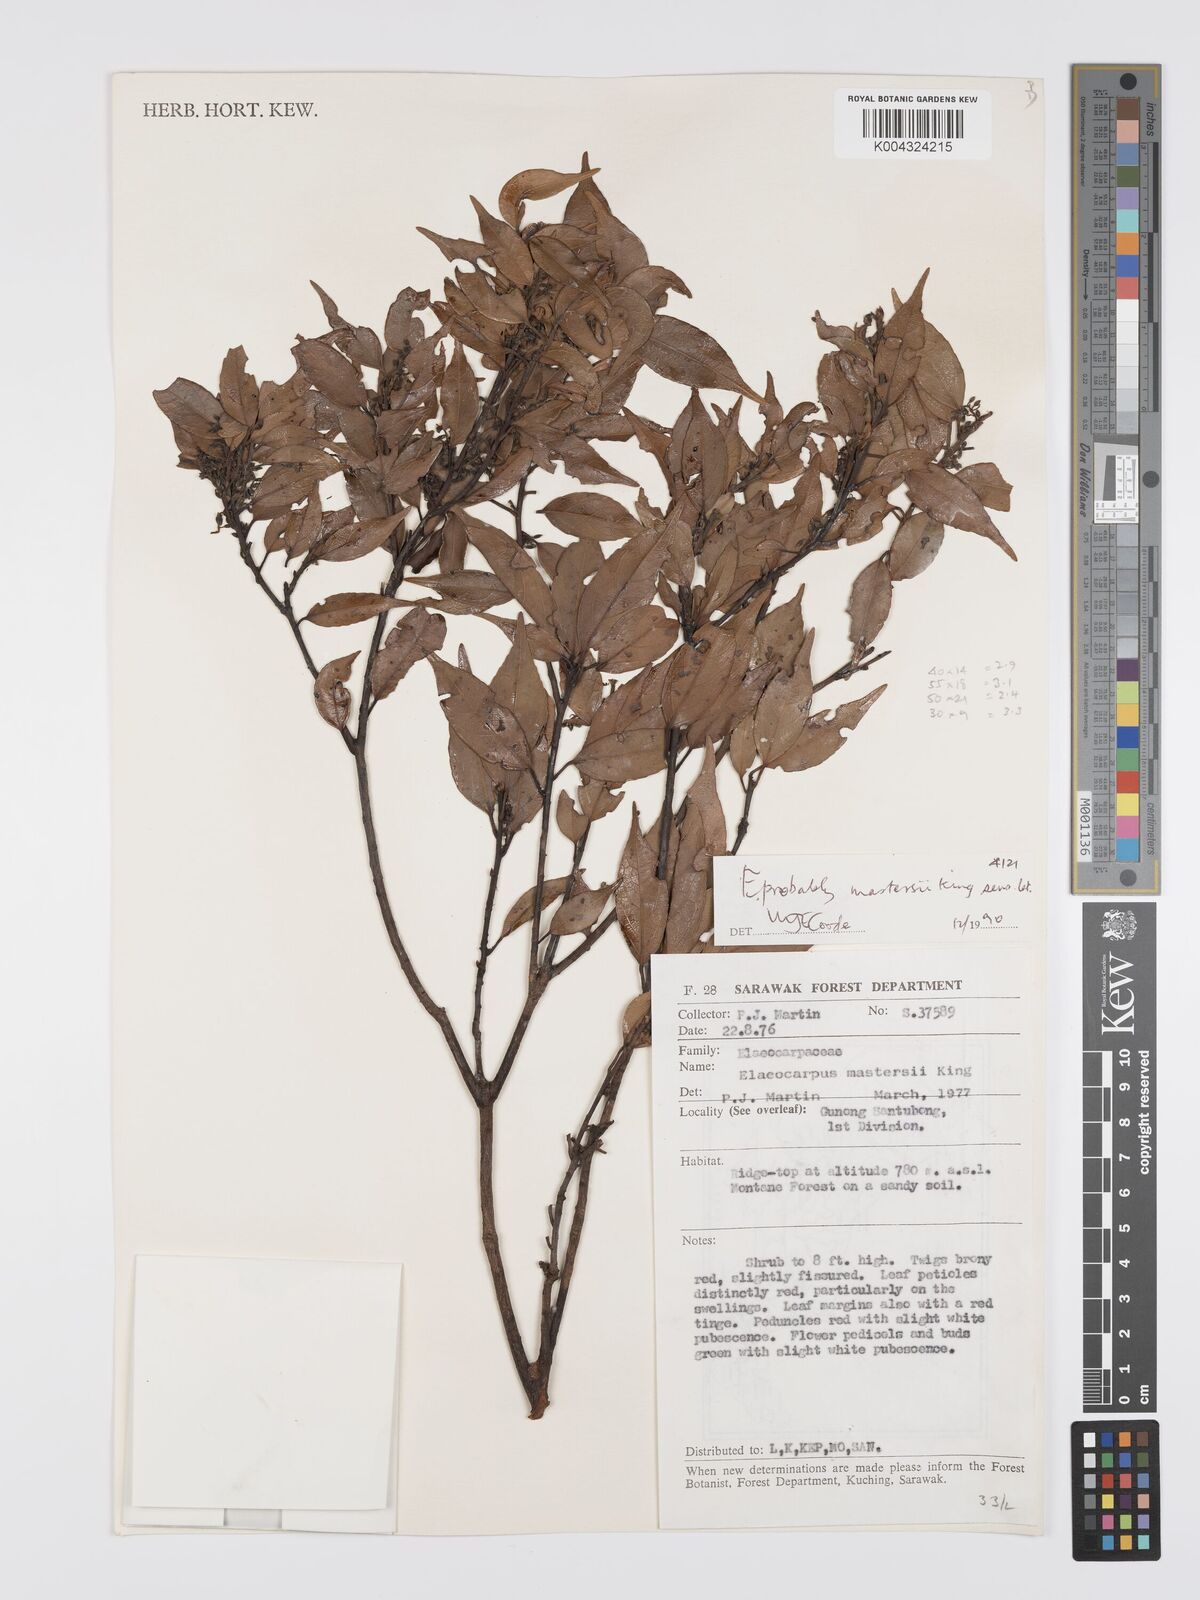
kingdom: Plantae
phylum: Tracheophyta
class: Magnoliopsida
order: Oxalidales
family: Elaeocarpaceae
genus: Elaeocarpus
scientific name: Elaeocarpus mastersii
